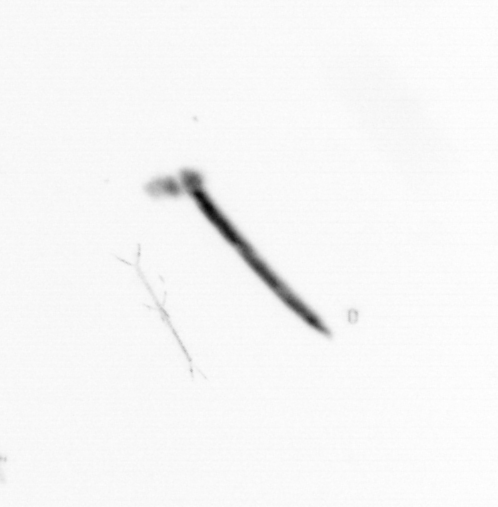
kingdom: Chromista
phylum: Ochrophyta
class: Bacillariophyceae
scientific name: Bacillariophyceae
